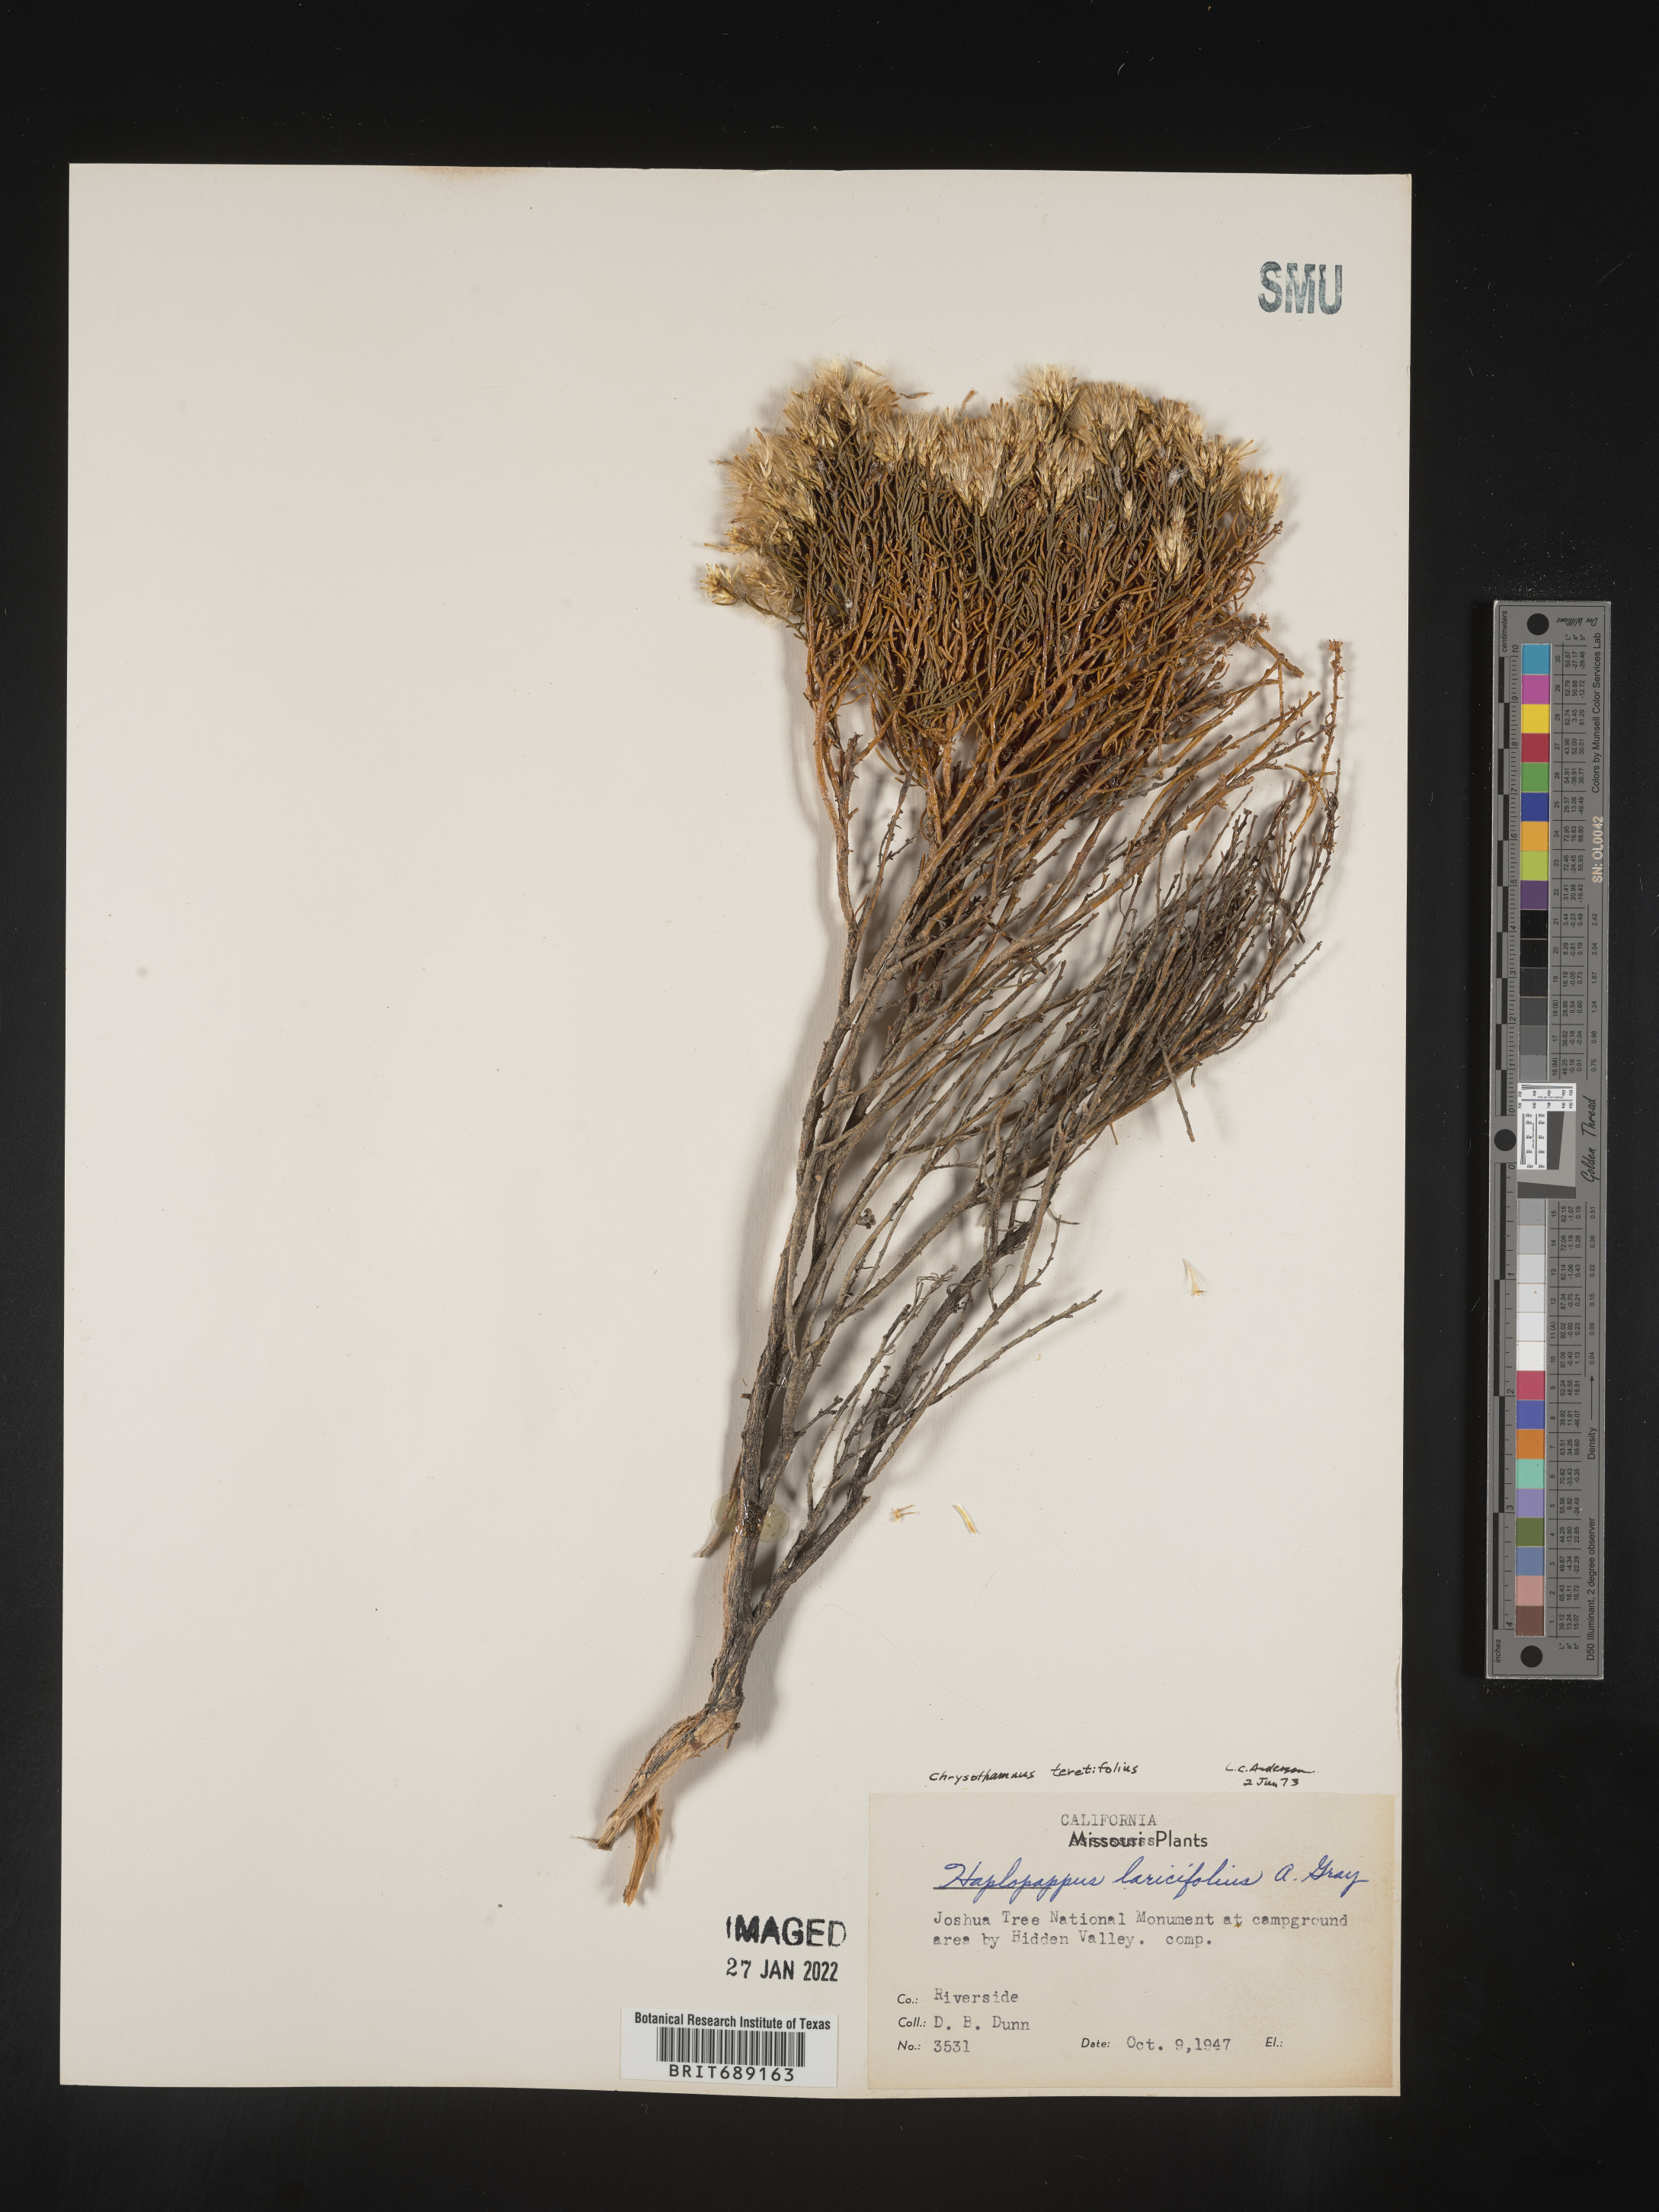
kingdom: Plantae
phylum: Tracheophyta
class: Magnoliopsida
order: Asterales
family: Asteraceae
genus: Chrysothamnus
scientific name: Chrysothamnus
